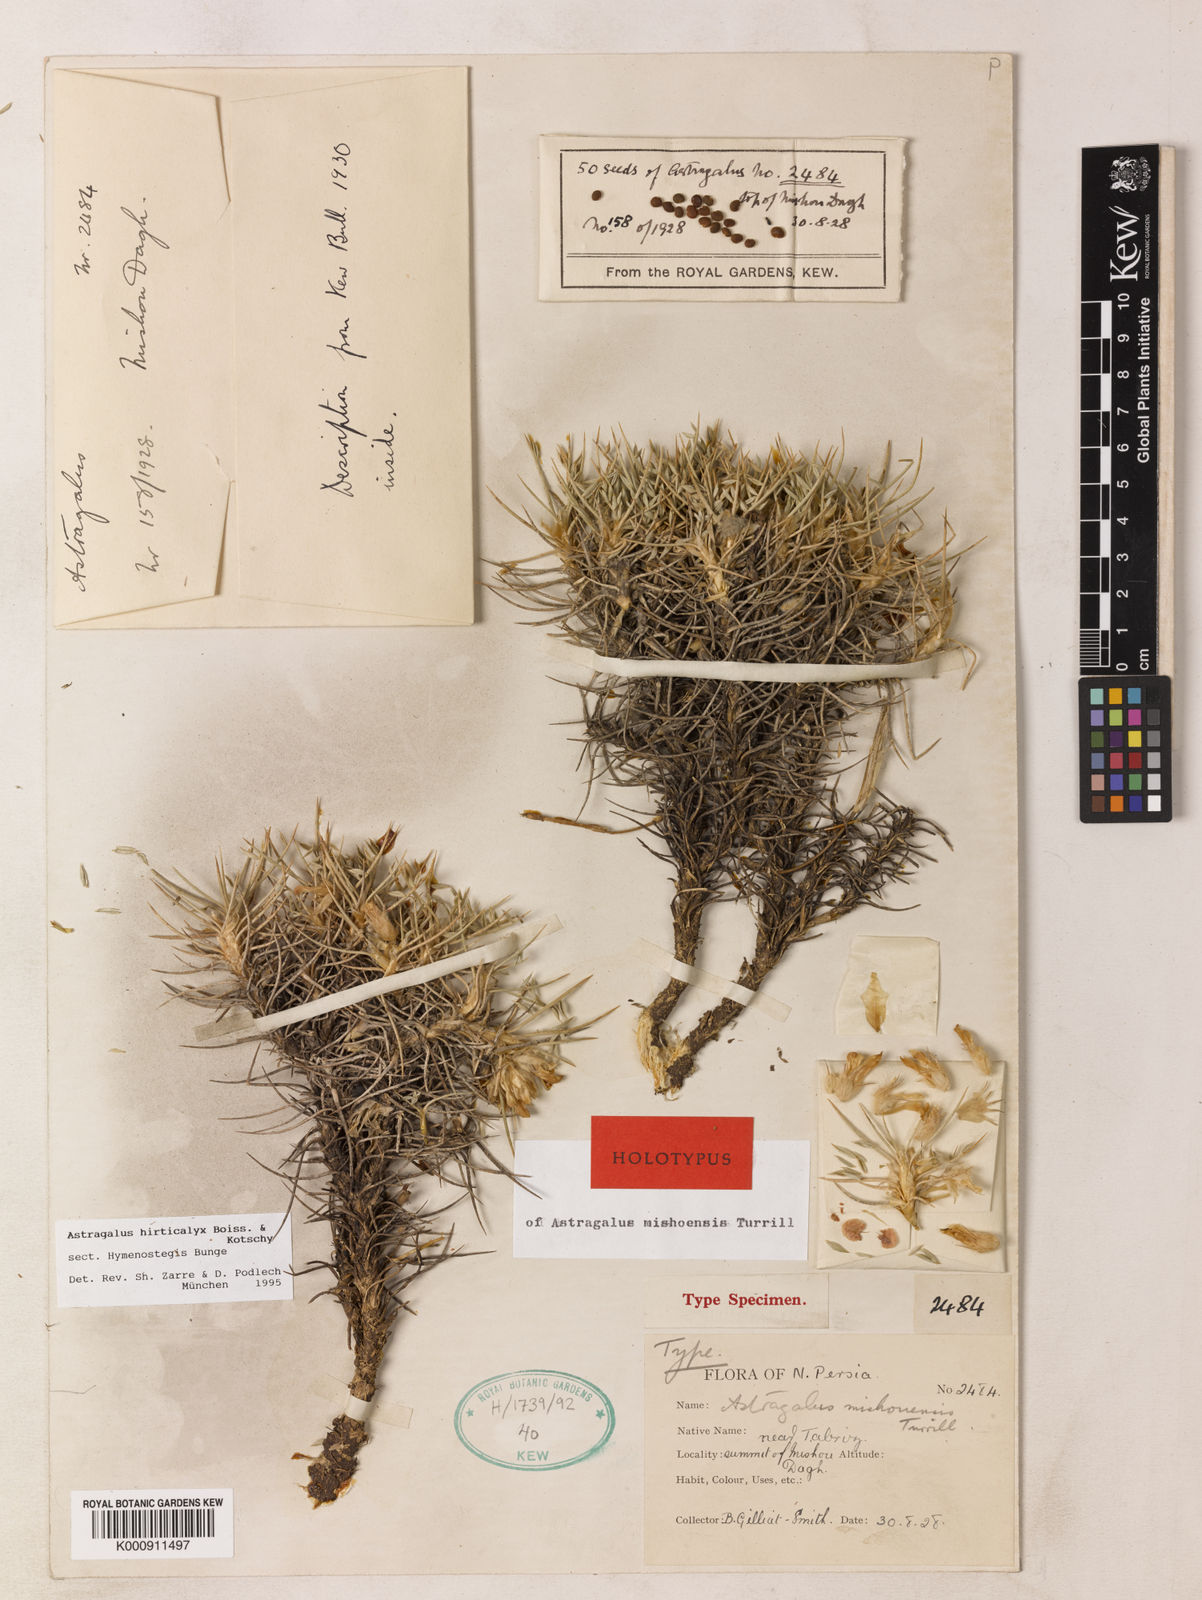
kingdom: Plantae
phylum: Tracheophyta
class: Magnoliopsida
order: Fabales
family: Fabaceae
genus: Astragalus
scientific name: Astragalus hirticalyx
